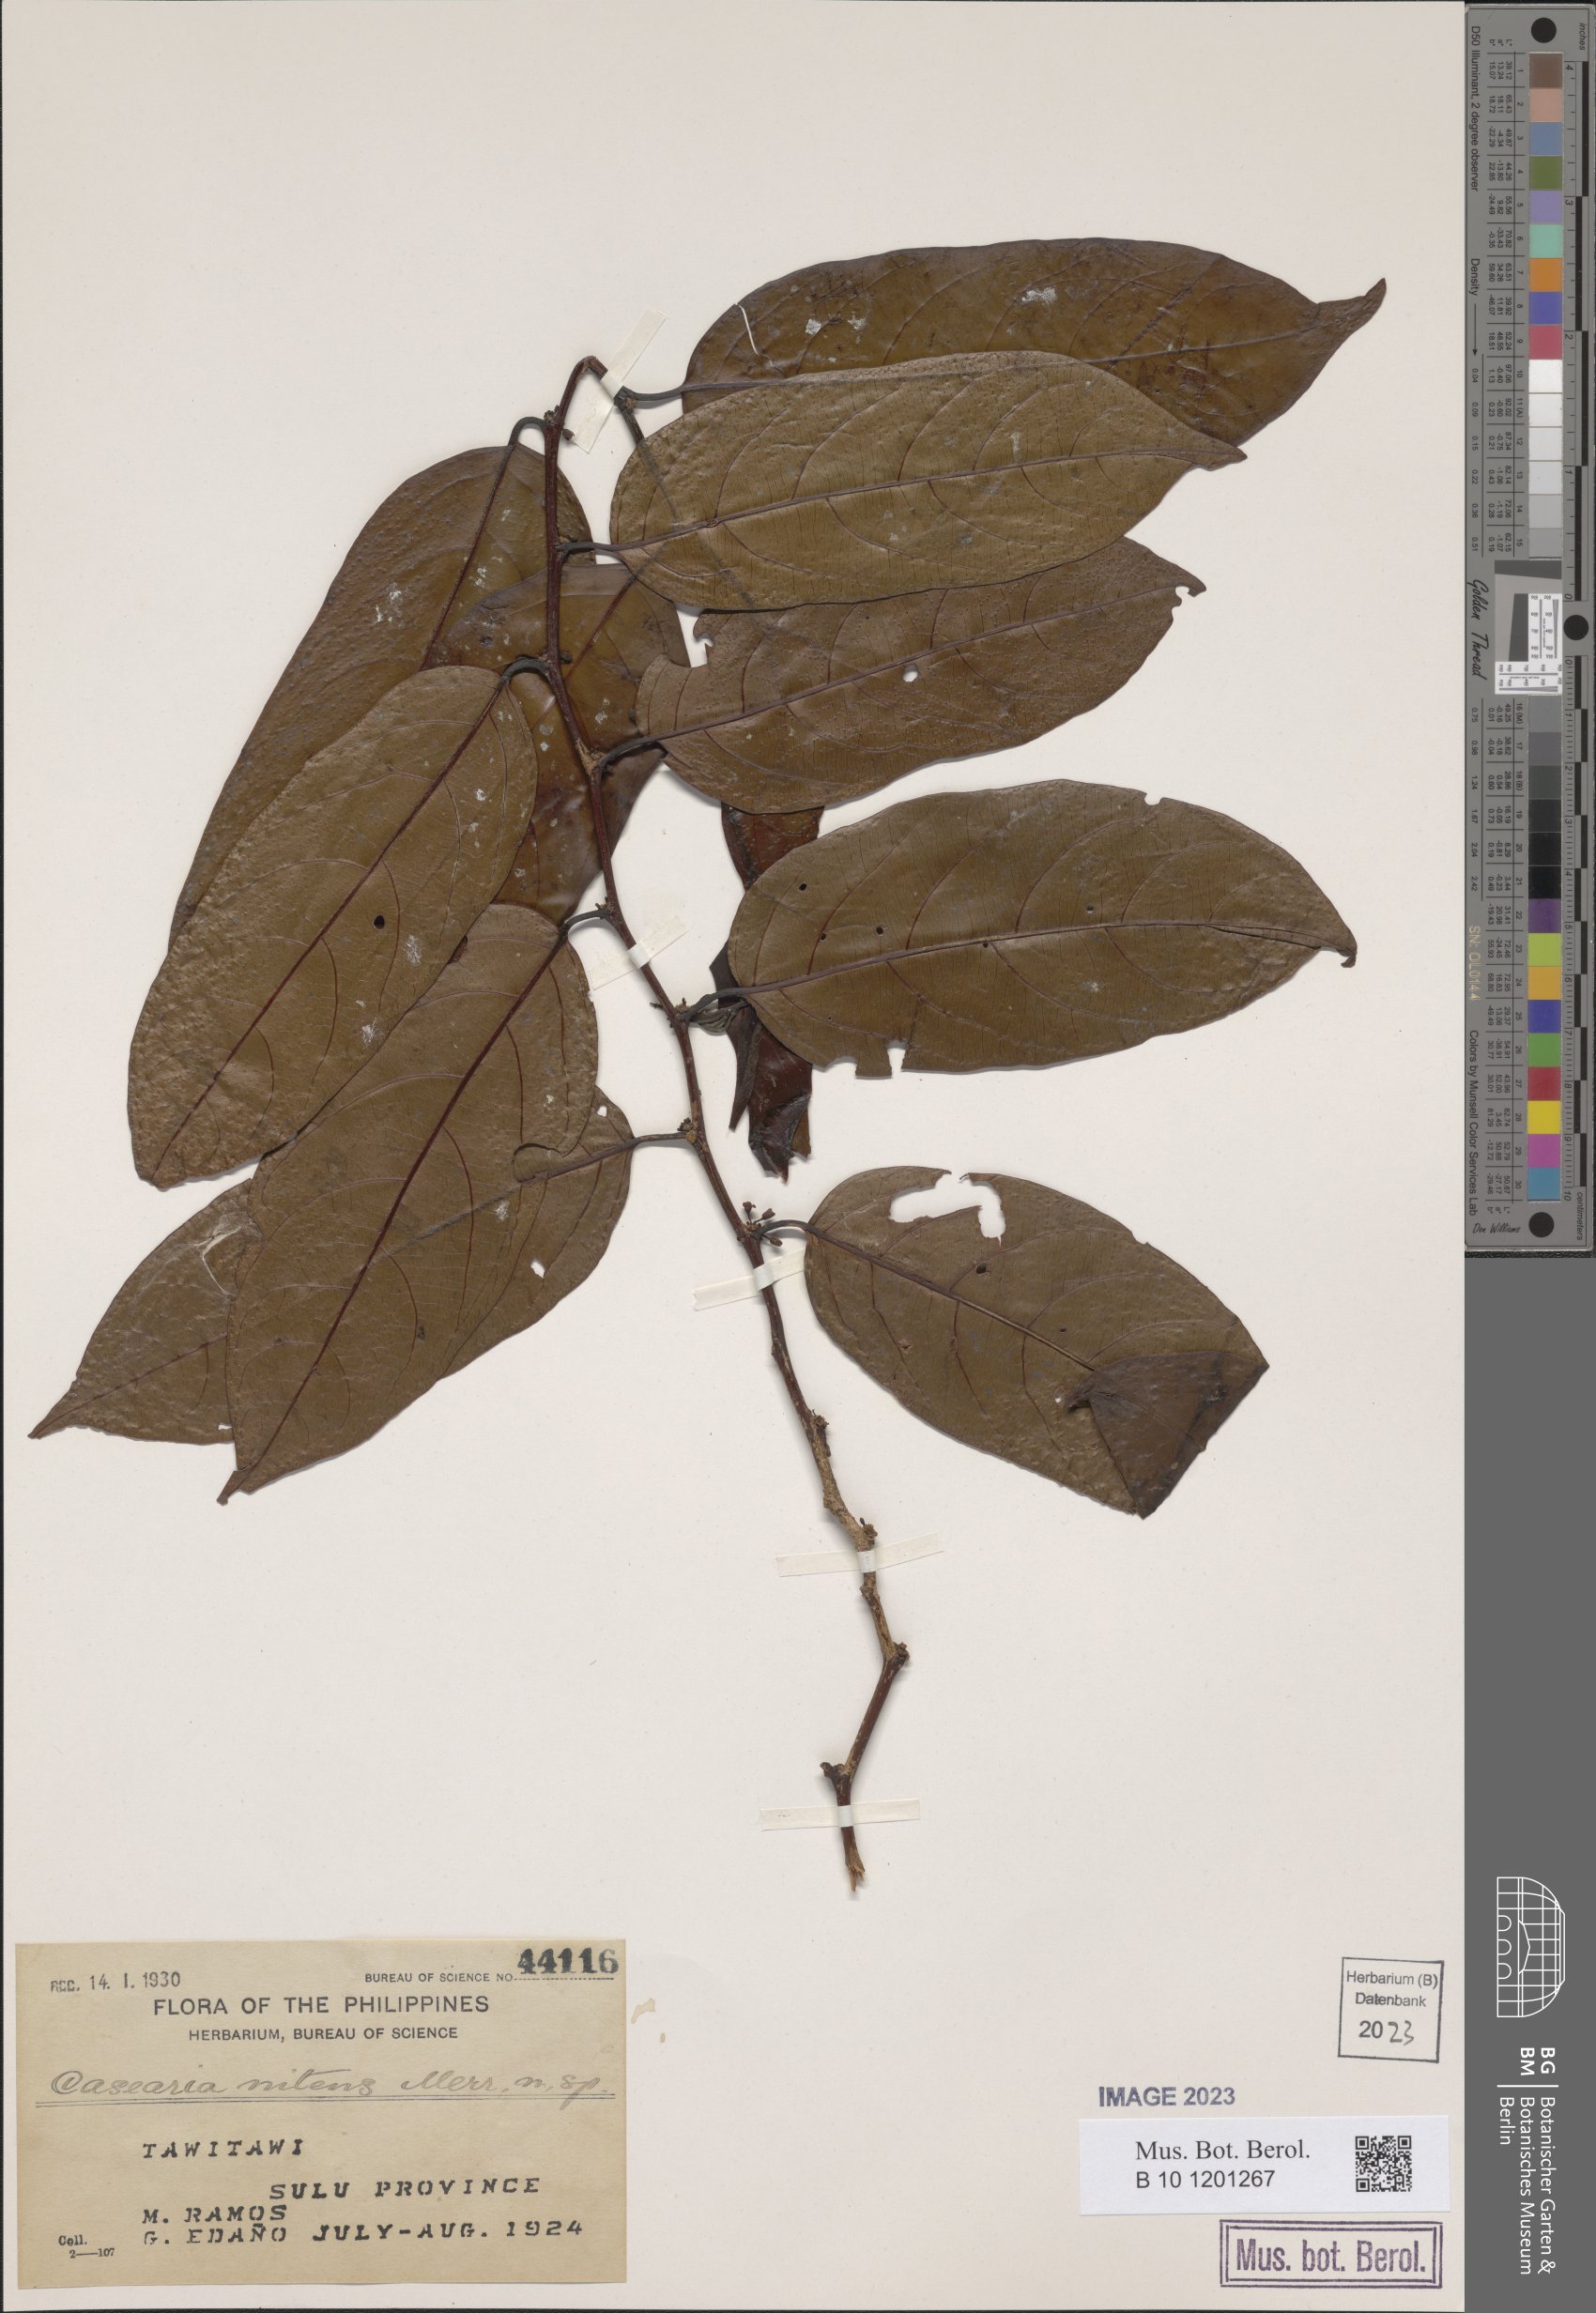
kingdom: Plantae
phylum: Tracheophyta
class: Magnoliopsida
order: Malpighiales
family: Salicaceae
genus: Casearia
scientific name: Casearia fuliginosa
